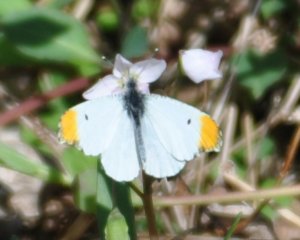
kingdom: Animalia
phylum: Arthropoda
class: Insecta
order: Lepidoptera
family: Pieridae
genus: Anthocharis
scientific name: Anthocharis midea
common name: Falcate Orangetip
